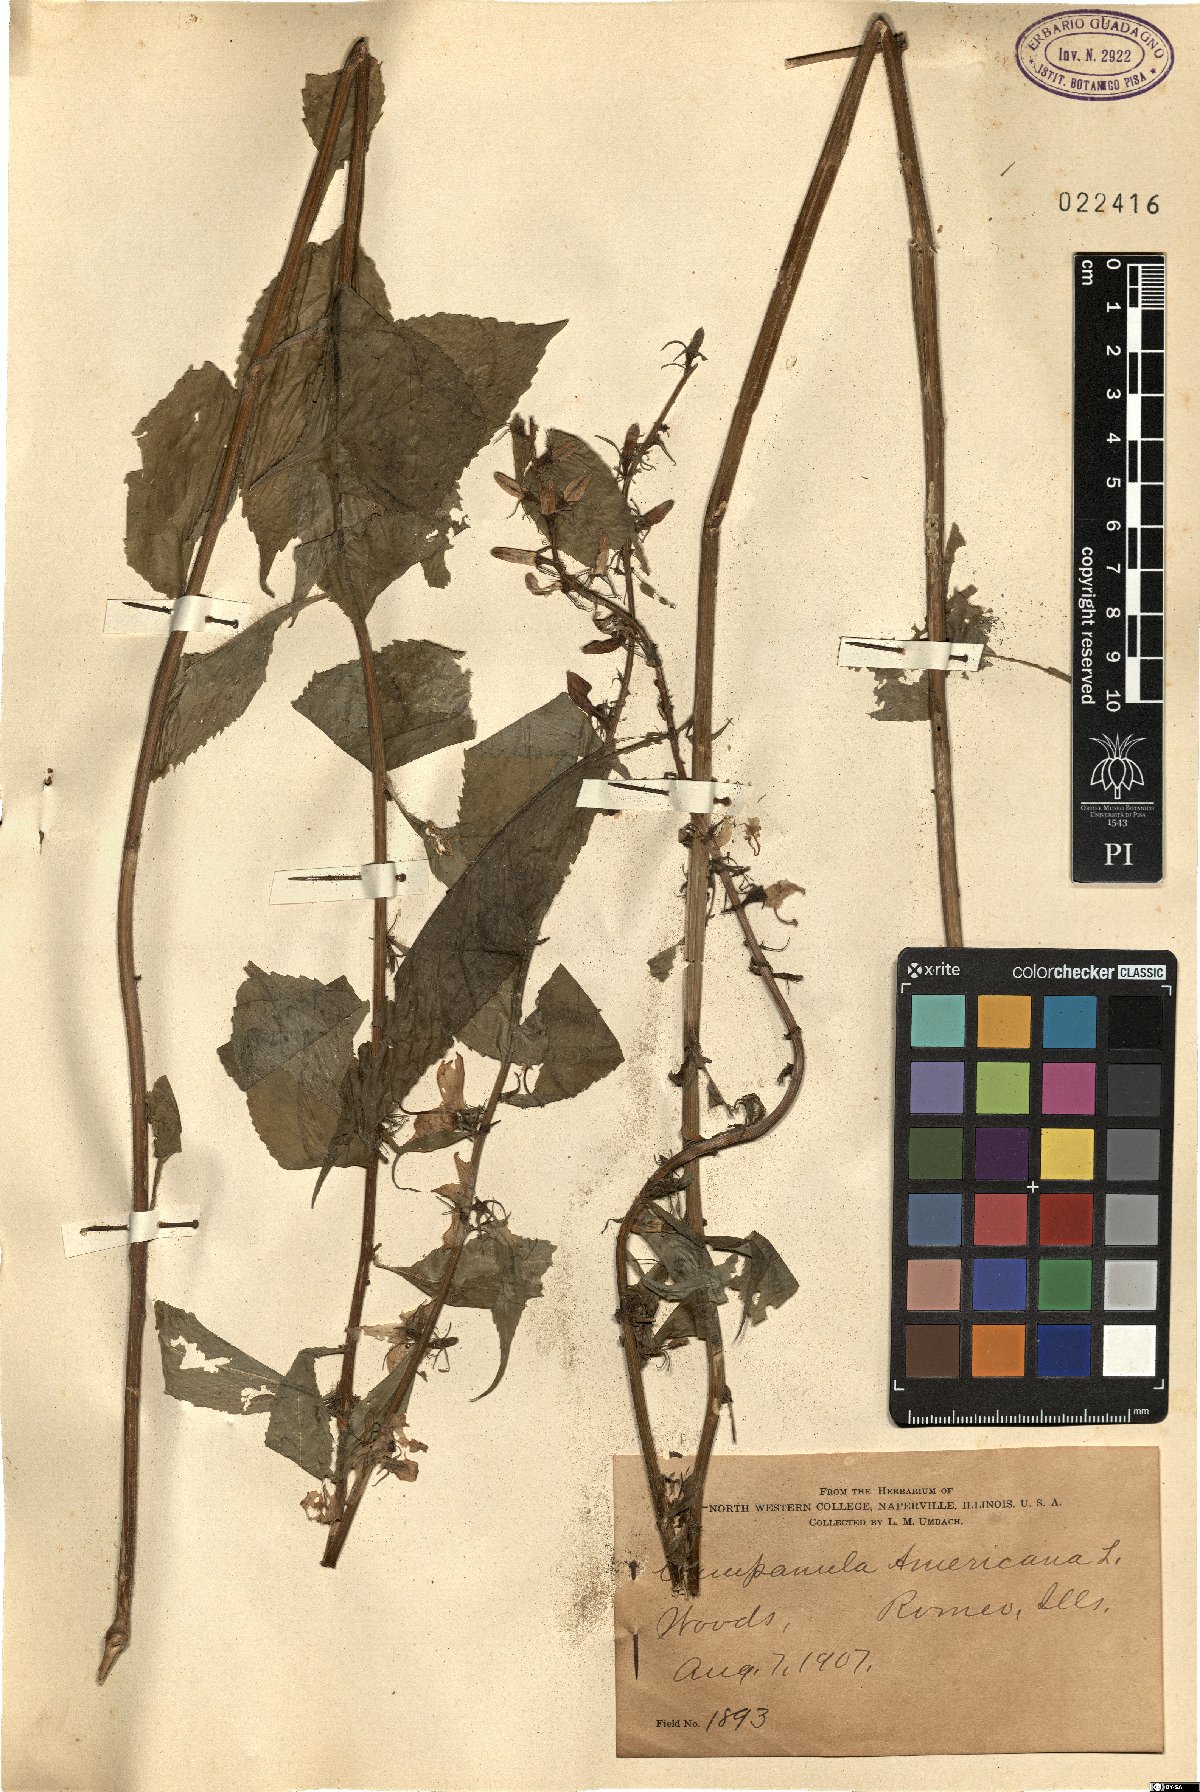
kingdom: Plantae
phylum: Tracheophyta
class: Magnoliopsida
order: Asterales
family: Campanulaceae
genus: Campanulastrum
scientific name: Campanulastrum americanum
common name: American bellflower
